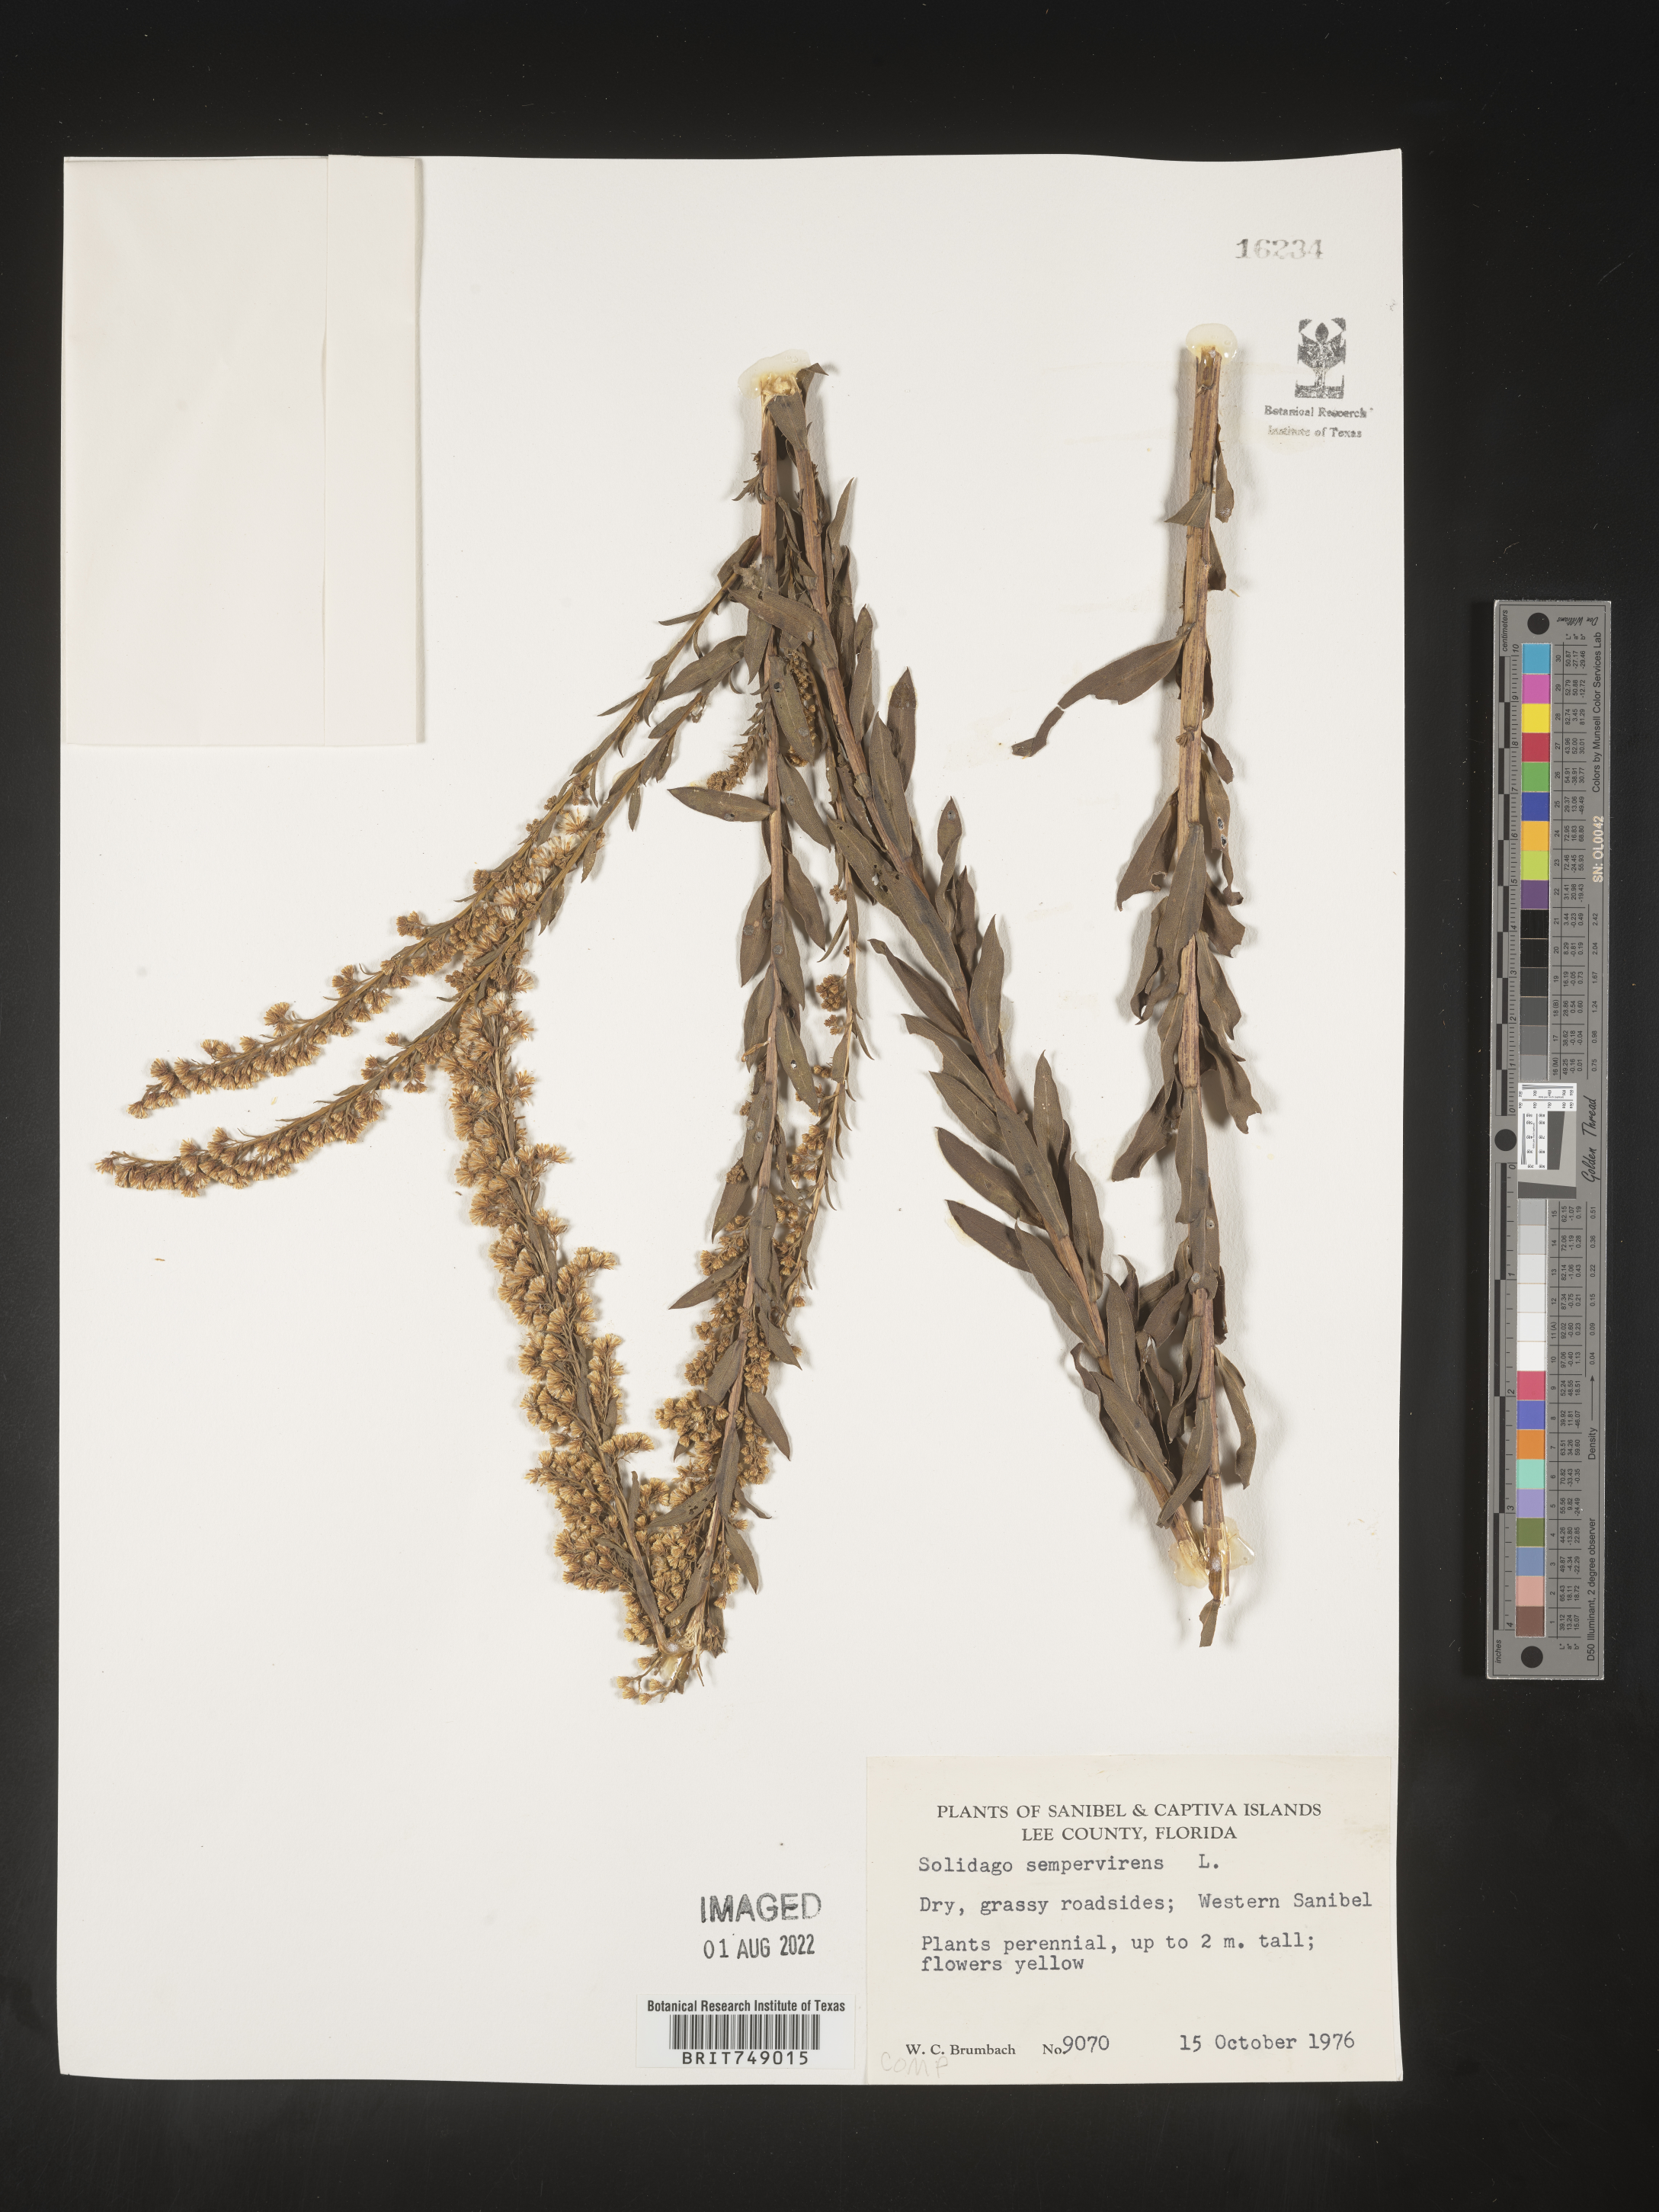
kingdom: Plantae
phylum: Tracheophyta
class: Magnoliopsida
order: Asterales
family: Asteraceae
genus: Solidago
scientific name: Solidago sempervirens
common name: Salt-marsh goldenrod
